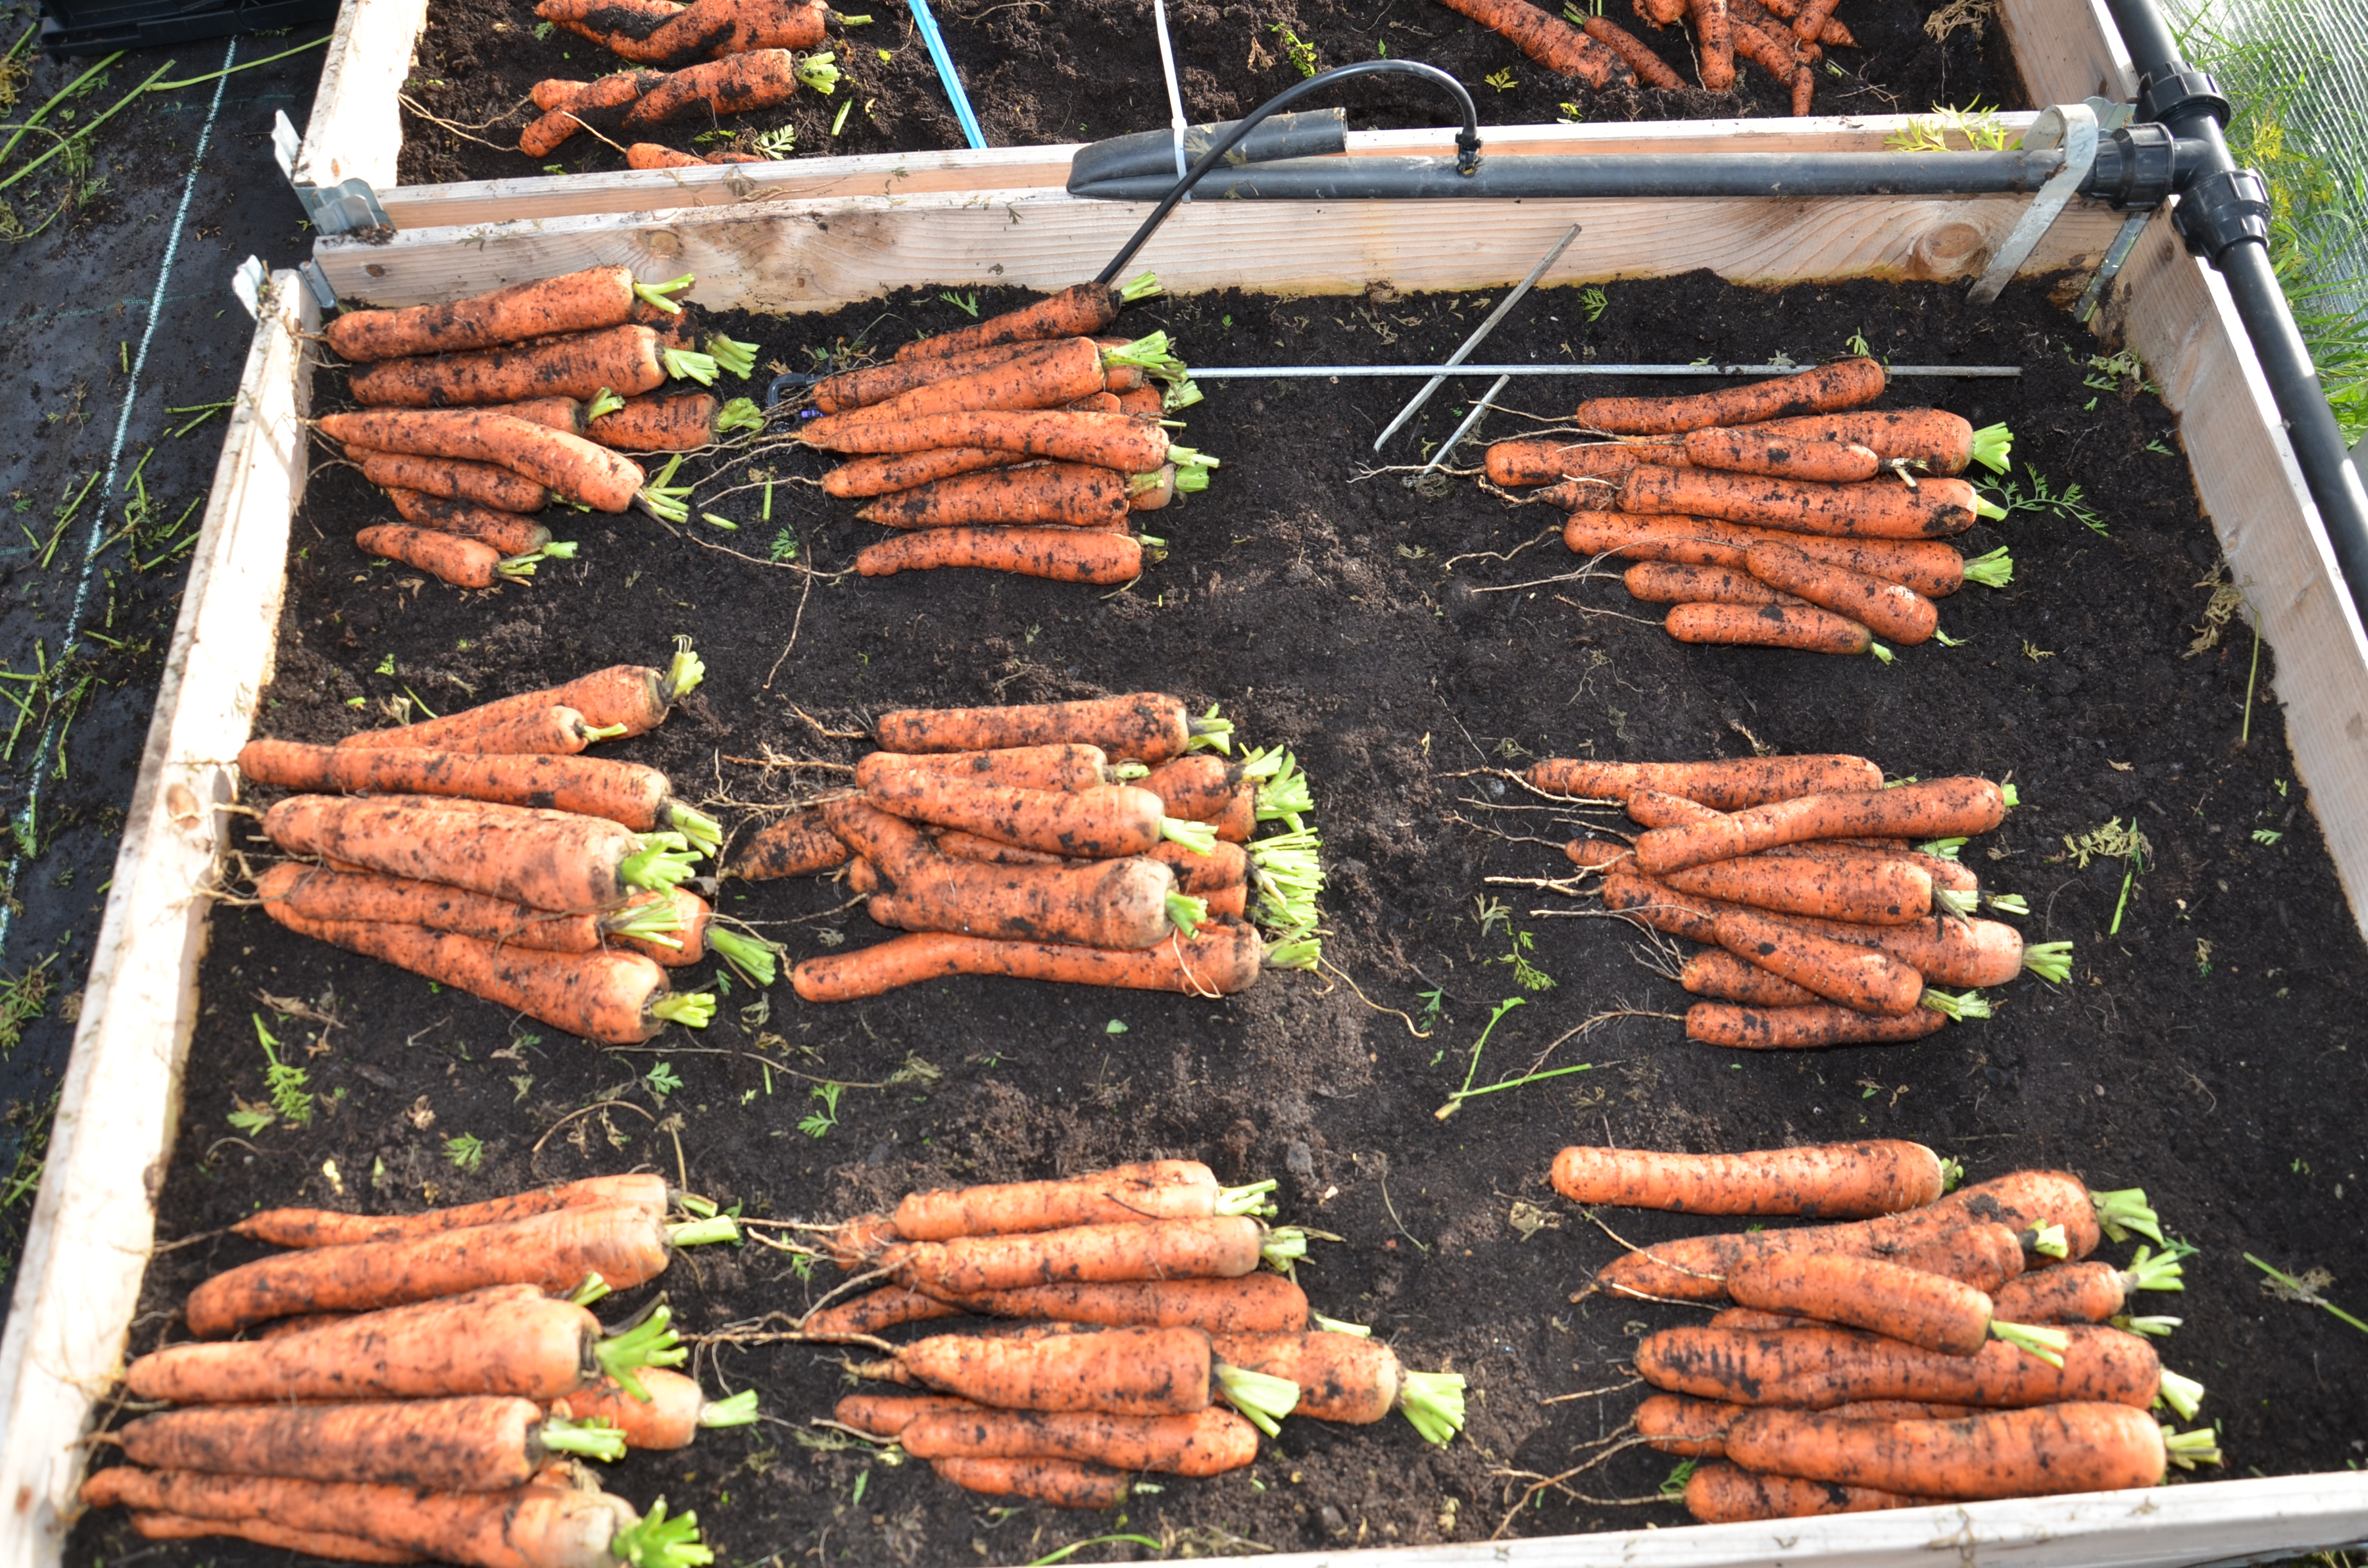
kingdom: Plantae
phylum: Tracheophyta
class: Magnoliopsida
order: Apiales
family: Apiaceae
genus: Daucus
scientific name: Daucus carota
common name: Wild carrot
